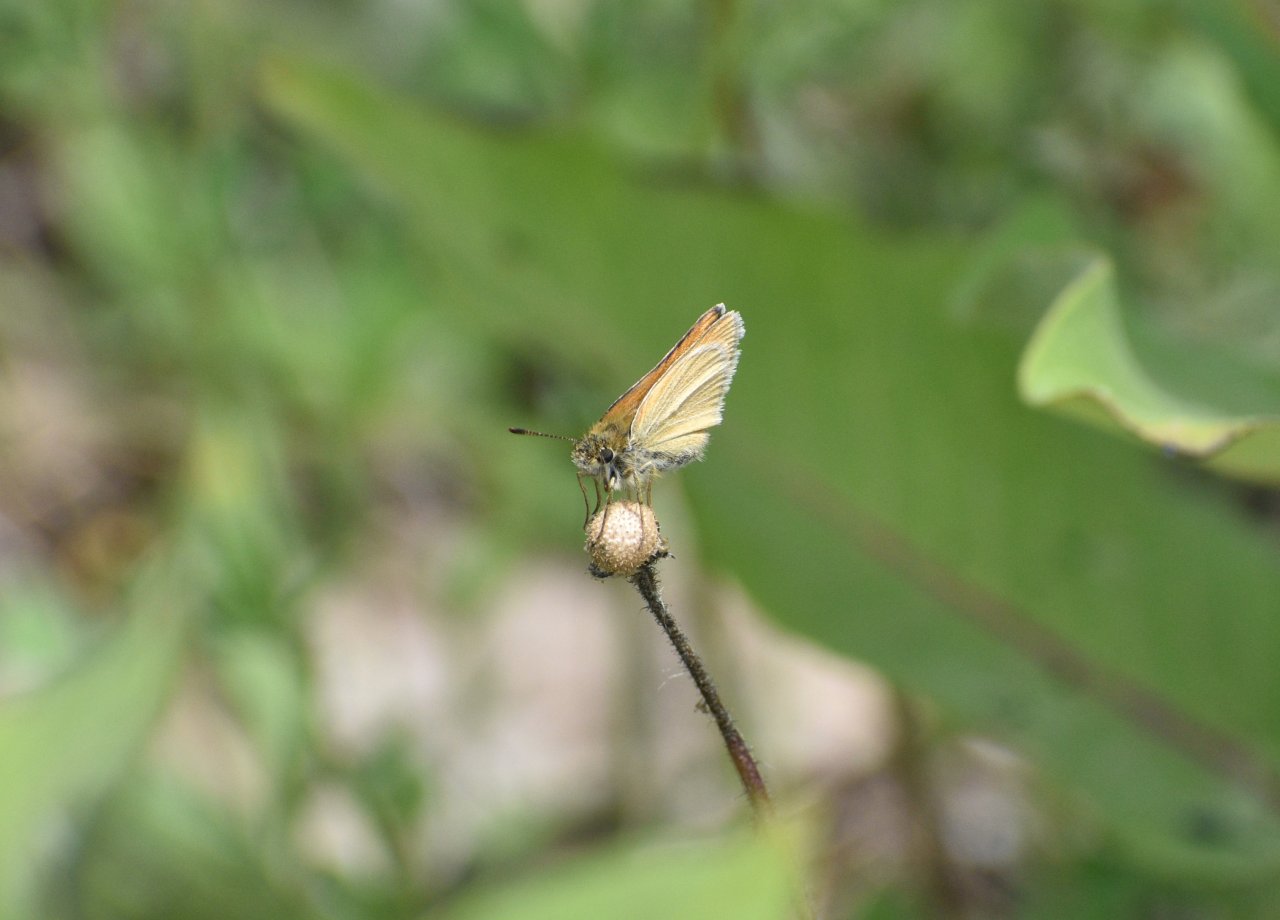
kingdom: Animalia
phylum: Arthropoda
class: Insecta
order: Lepidoptera
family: Hesperiidae
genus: Thymelicus
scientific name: Thymelicus lineola
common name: European Skipper
